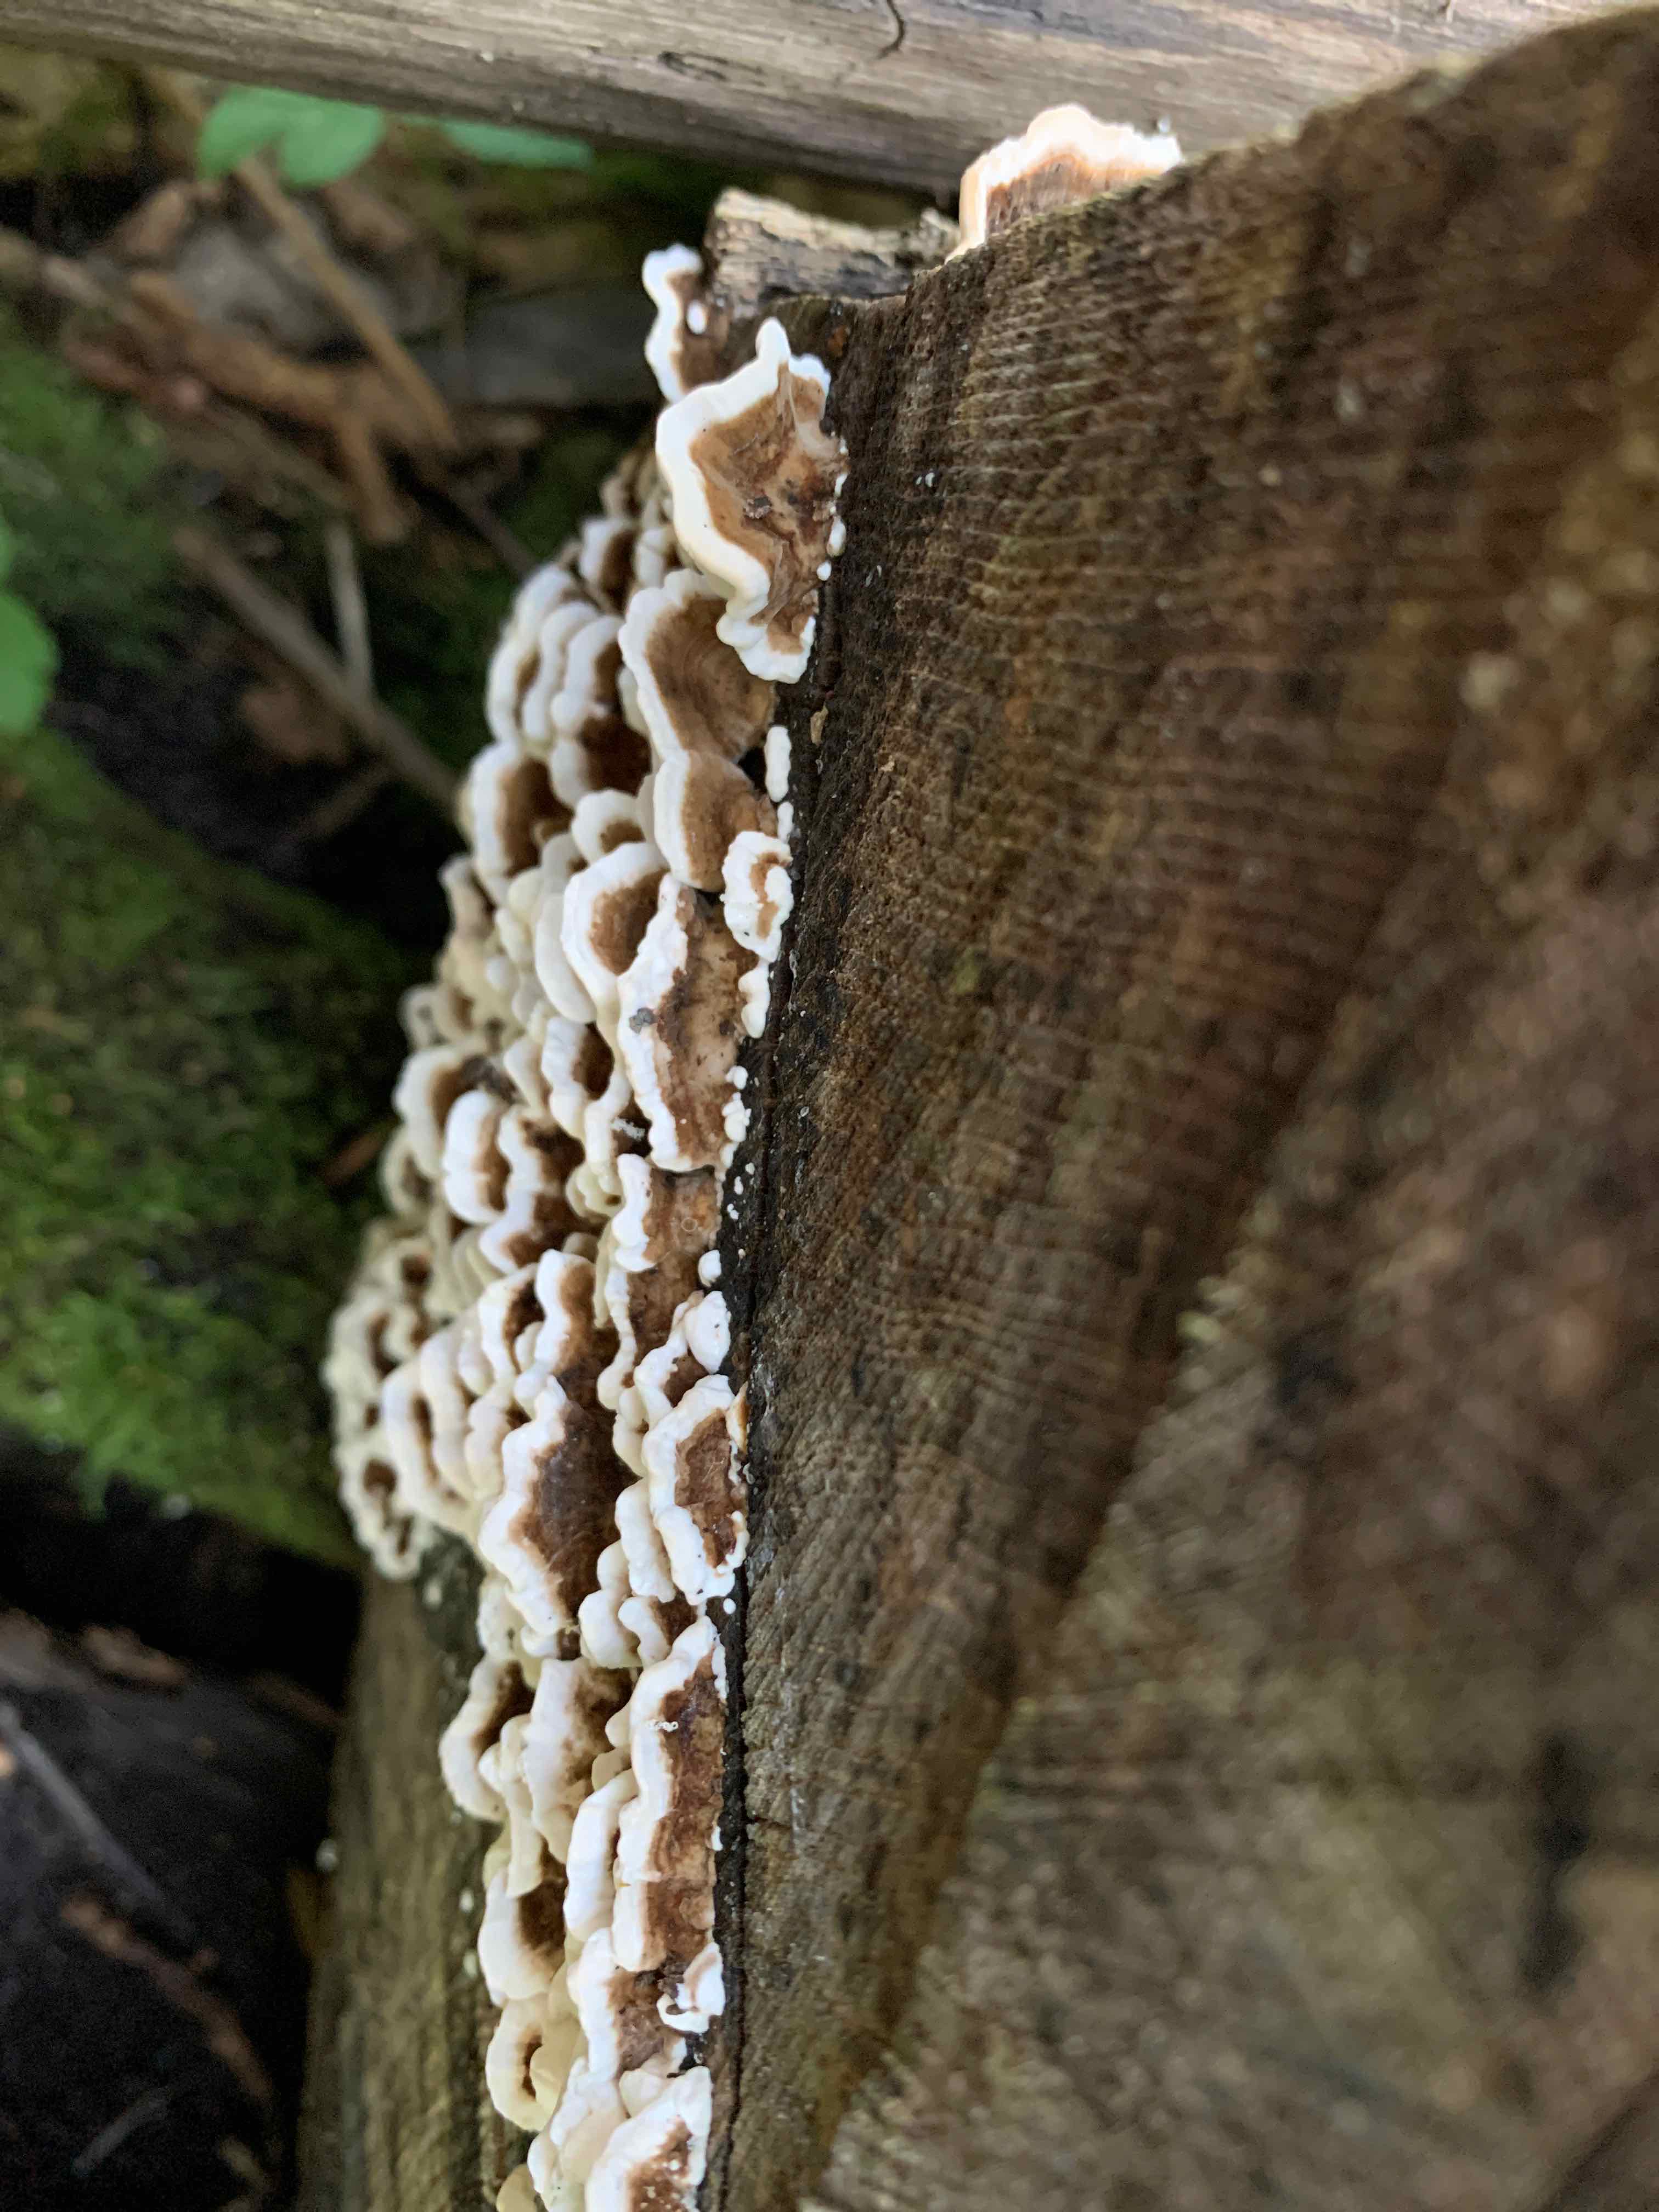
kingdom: Fungi
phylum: Basidiomycota
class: Agaricomycetes
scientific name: Agaricomycetes
